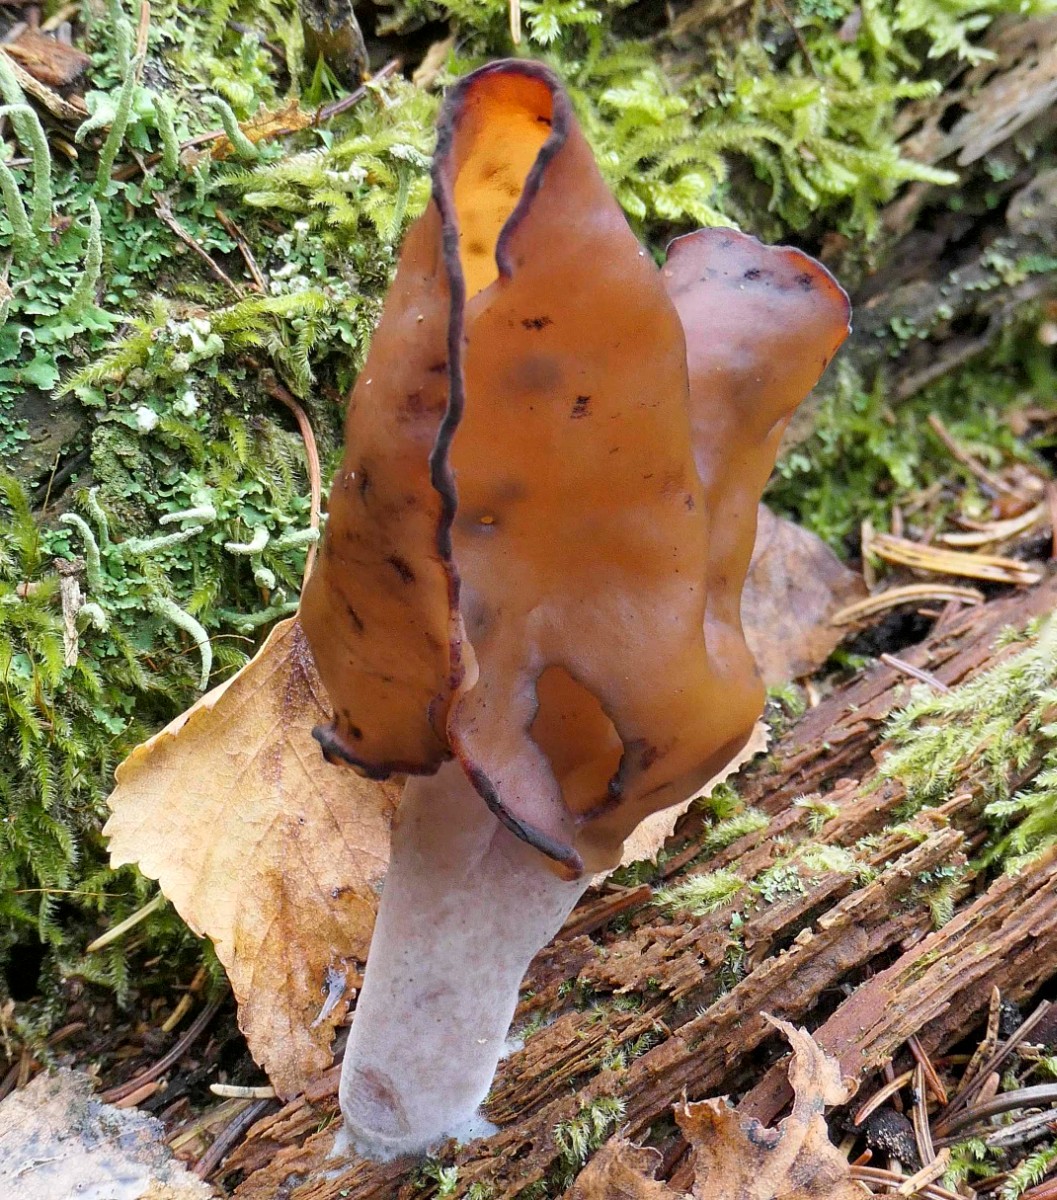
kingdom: Fungi
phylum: Ascomycota
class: Pezizomycetes
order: Pezizales
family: Discinaceae
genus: Gyromitra
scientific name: Gyromitra infula
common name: bispehue-stenmorkel
